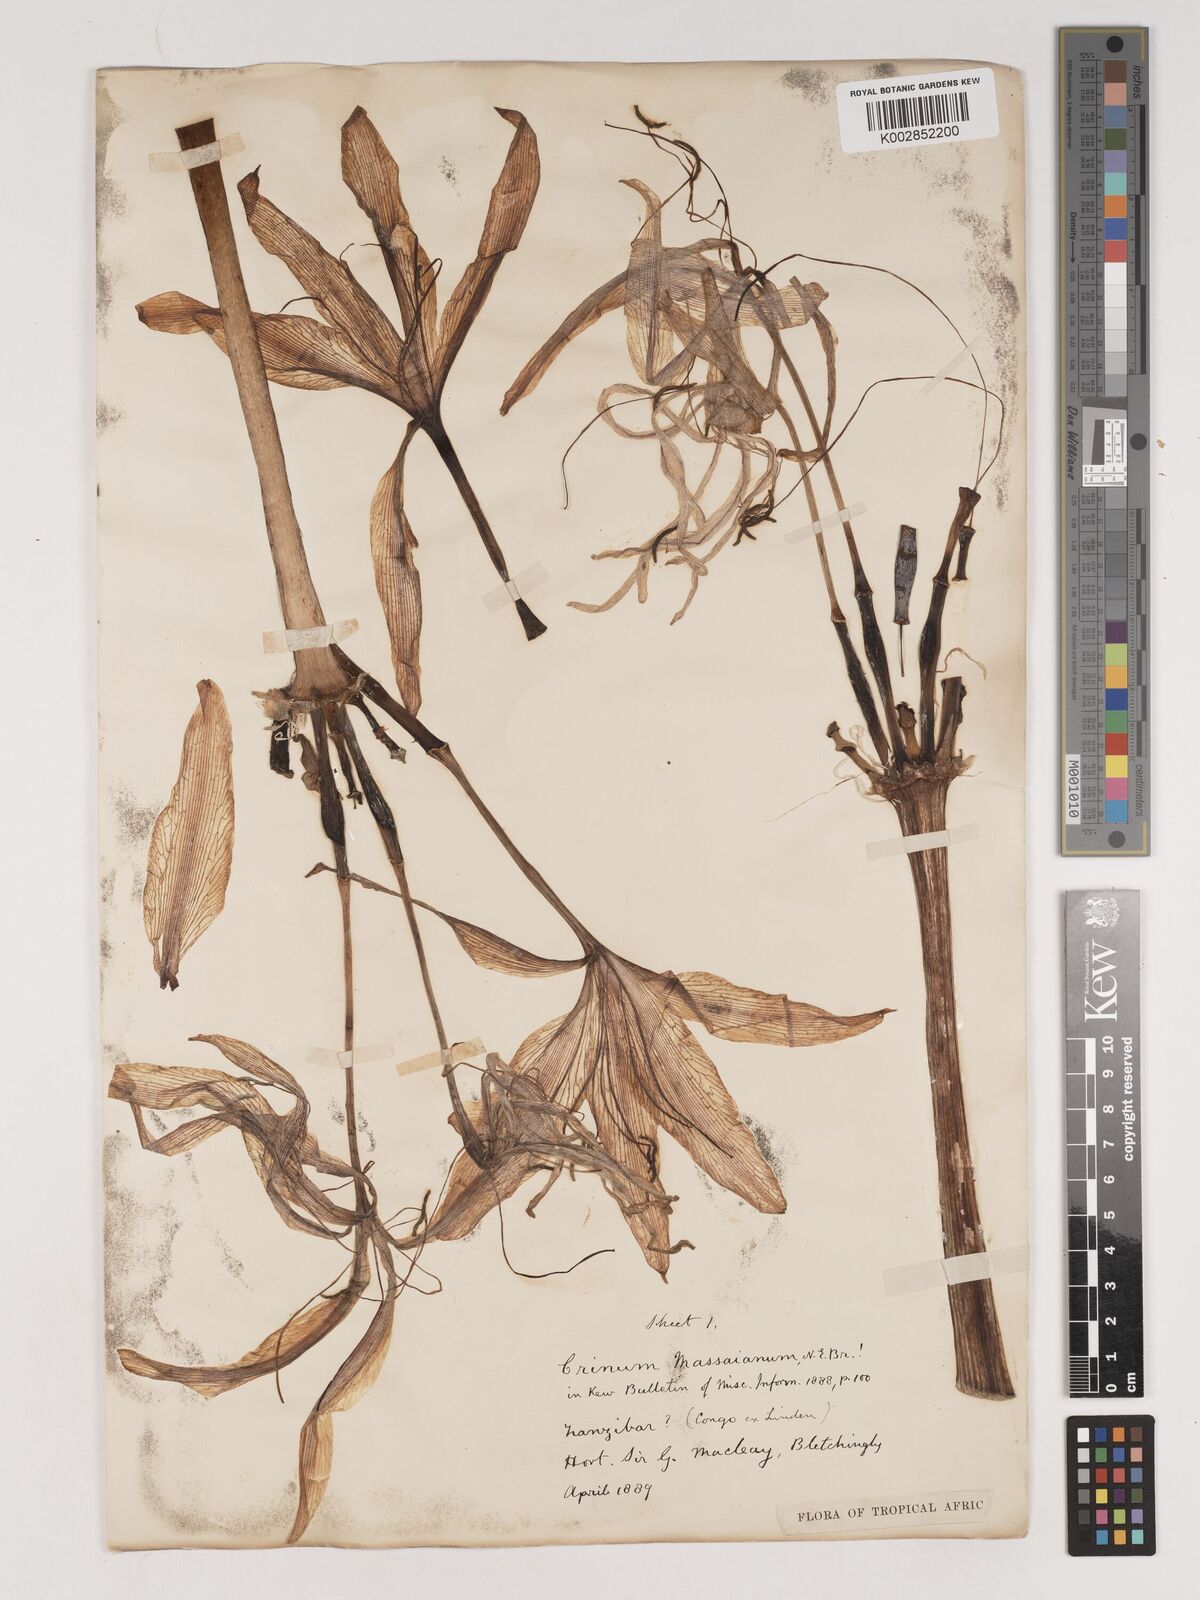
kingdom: Plantae
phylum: Tracheophyta
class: Liliopsida
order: Asparagales
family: Amaryllidaceae
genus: Crinum
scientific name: Crinum ornatum
